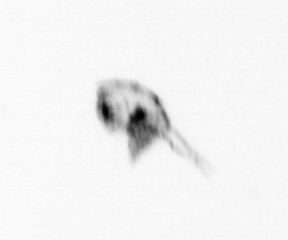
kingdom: Animalia
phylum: Arthropoda
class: Maxillopoda
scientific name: Maxillopoda
